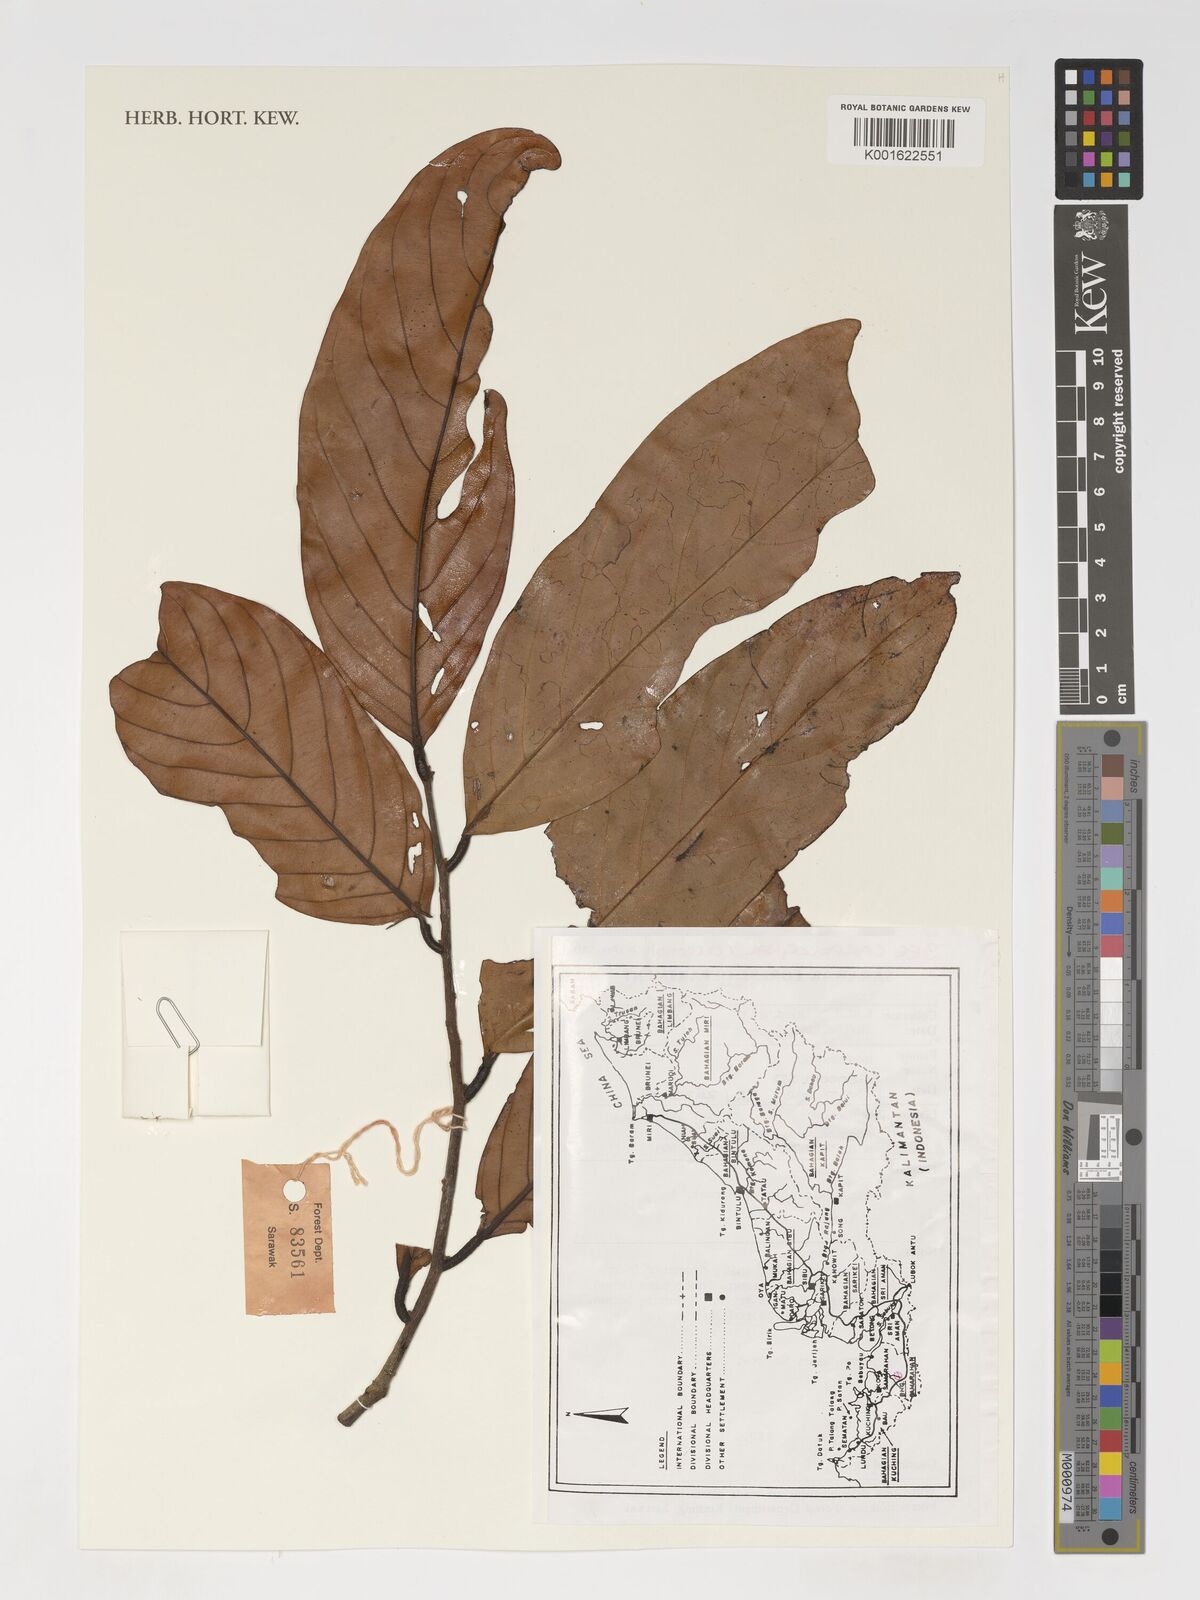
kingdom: Plantae
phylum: Tracheophyta
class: Magnoliopsida
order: Magnoliales
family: Annonaceae
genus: Monoon
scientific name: Monoon
